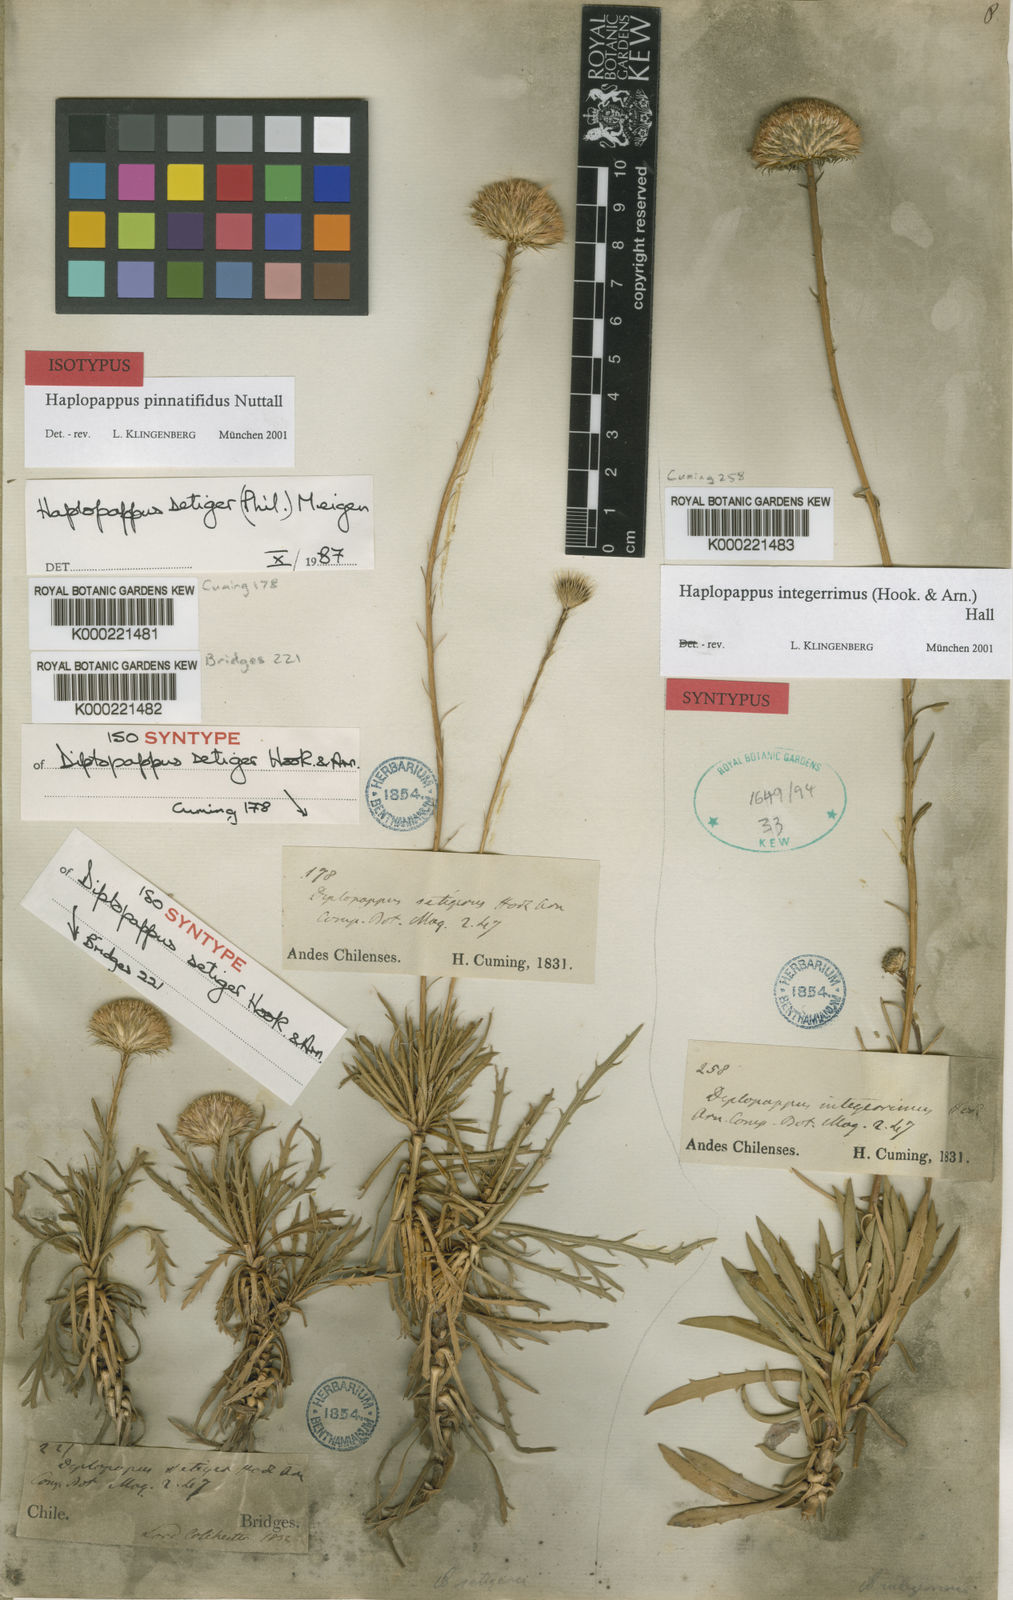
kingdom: Plantae
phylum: Tracheophyta
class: Magnoliopsida
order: Asterales
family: Asteraceae
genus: Haplopappus
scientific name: Haplopappus pinnatifidus
